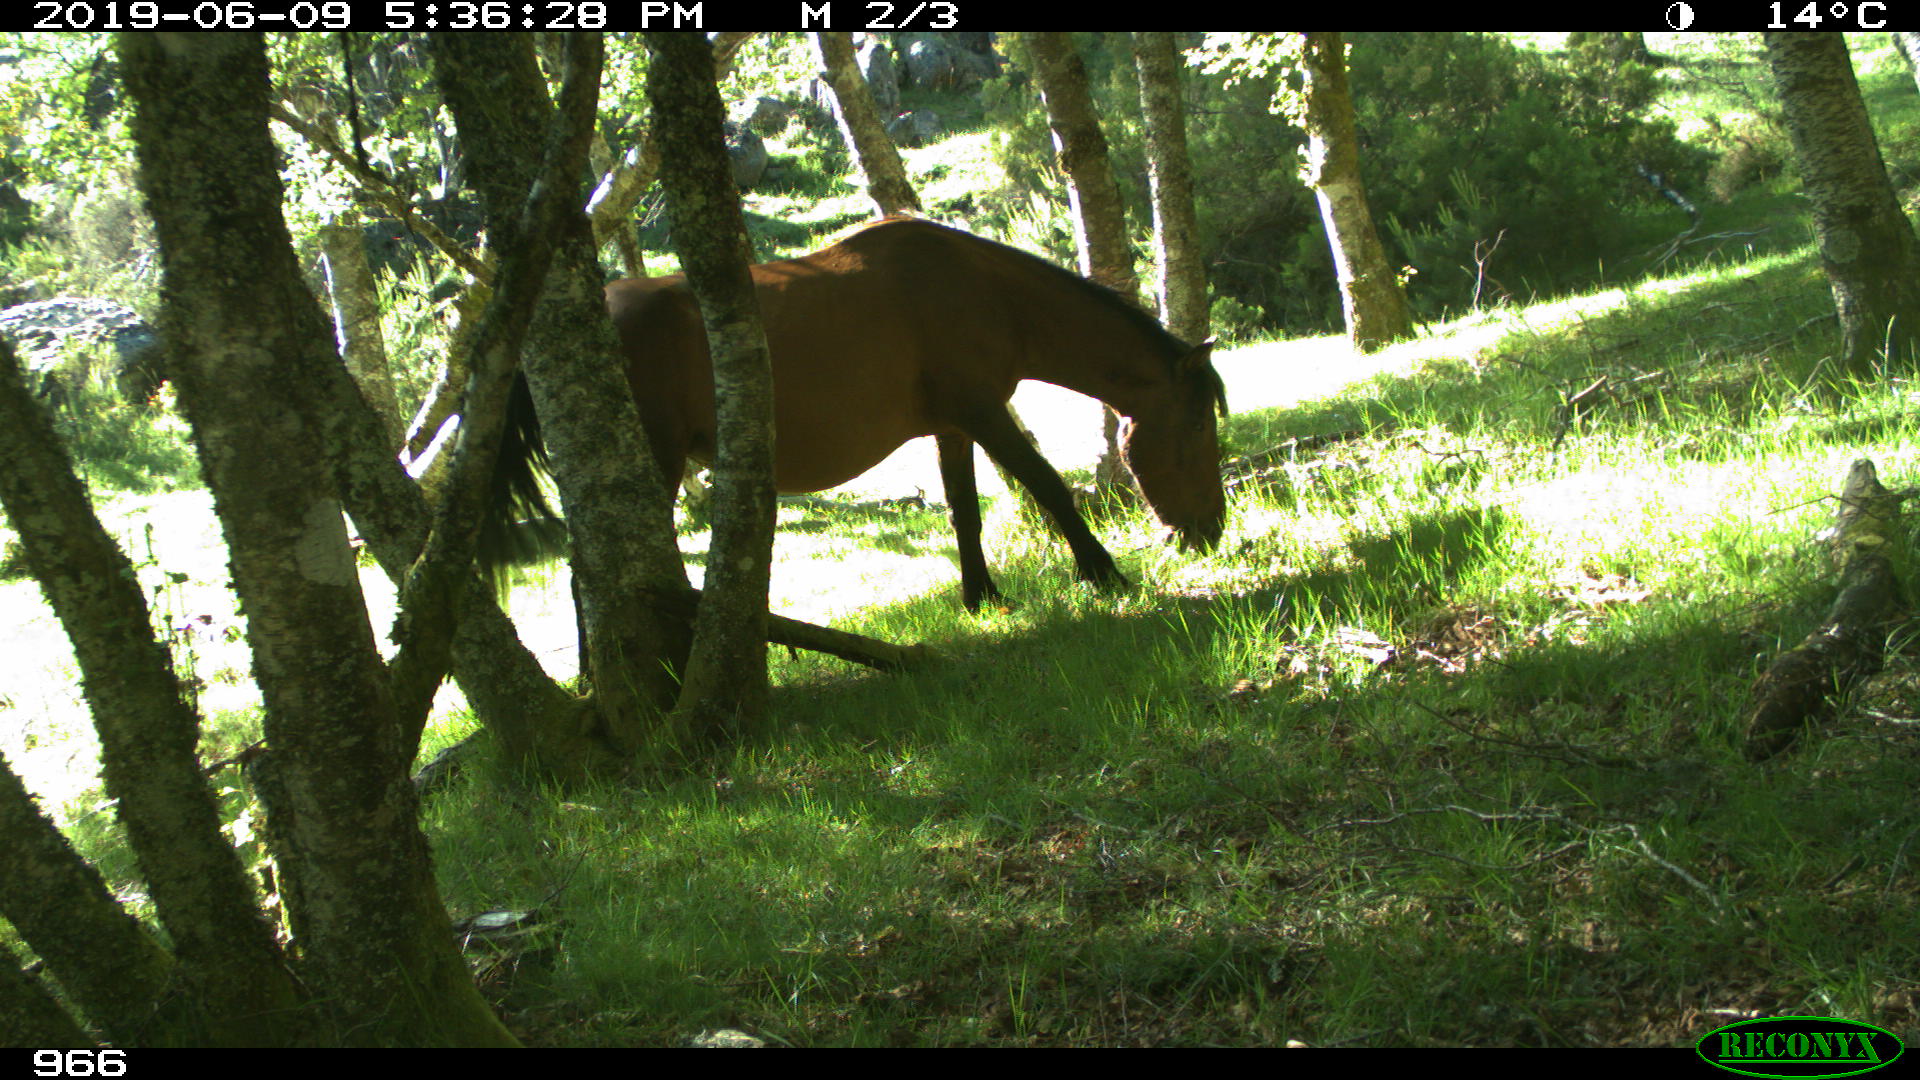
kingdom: Animalia
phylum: Chordata
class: Mammalia
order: Perissodactyla
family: Equidae
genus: Equus
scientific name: Equus caballus
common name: Horse
